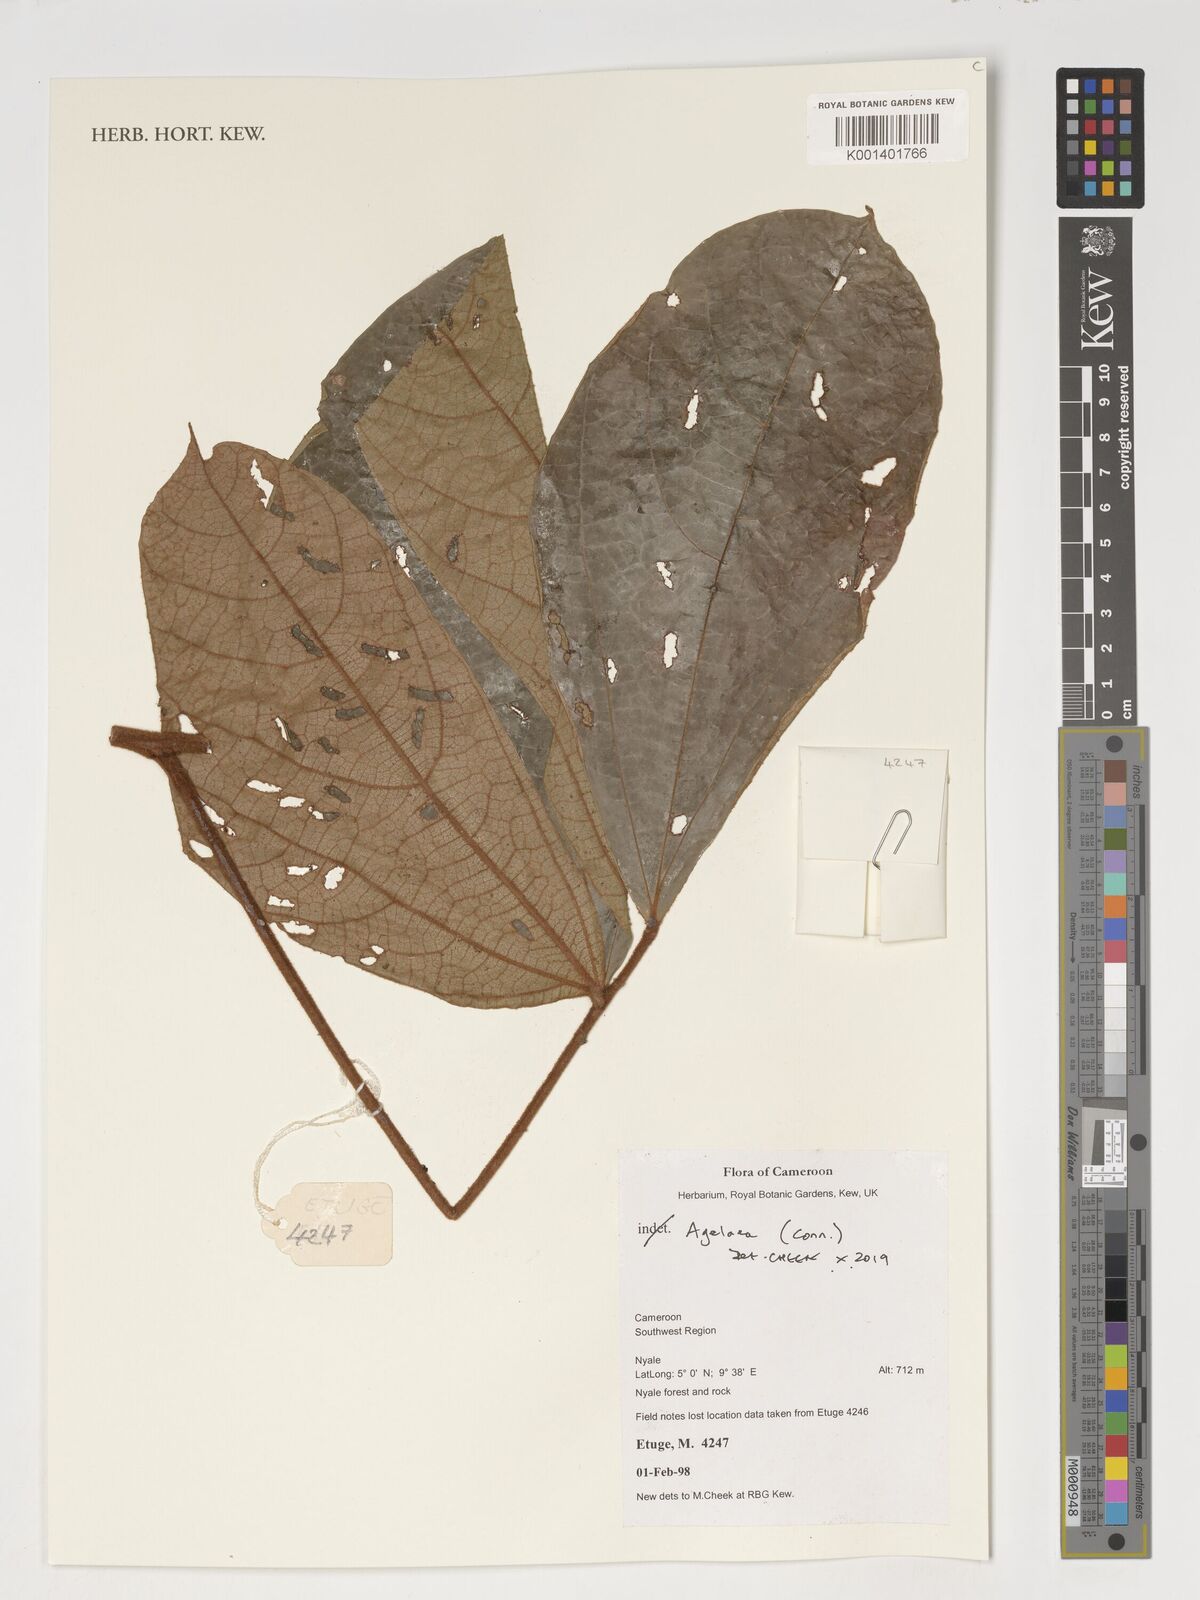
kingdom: Plantae
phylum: Tracheophyta
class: Magnoliopsida
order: Oxalidales
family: Connaraceae
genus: Agelaea
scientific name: Agelaea
